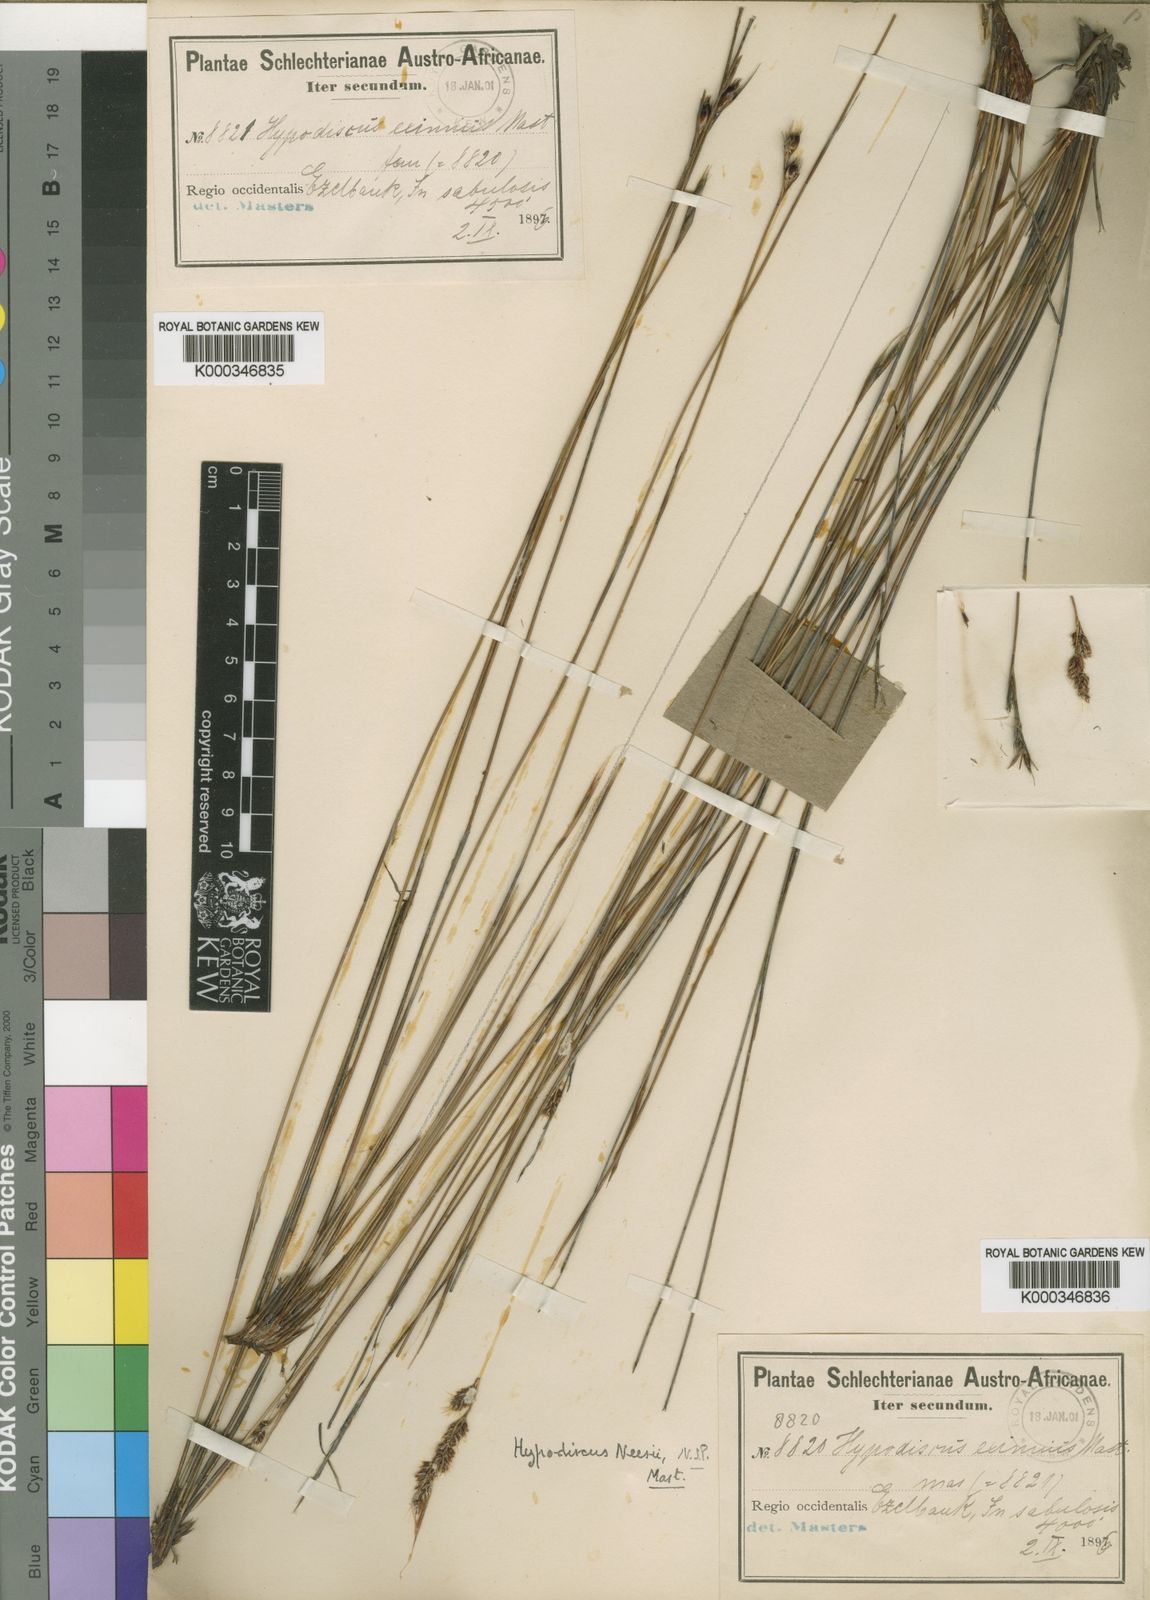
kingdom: Plantae
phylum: Tracheophyta
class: Liliopsida
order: Poales
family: Restionaceae
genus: Hypodiscus
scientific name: Hypodiscus neesii
